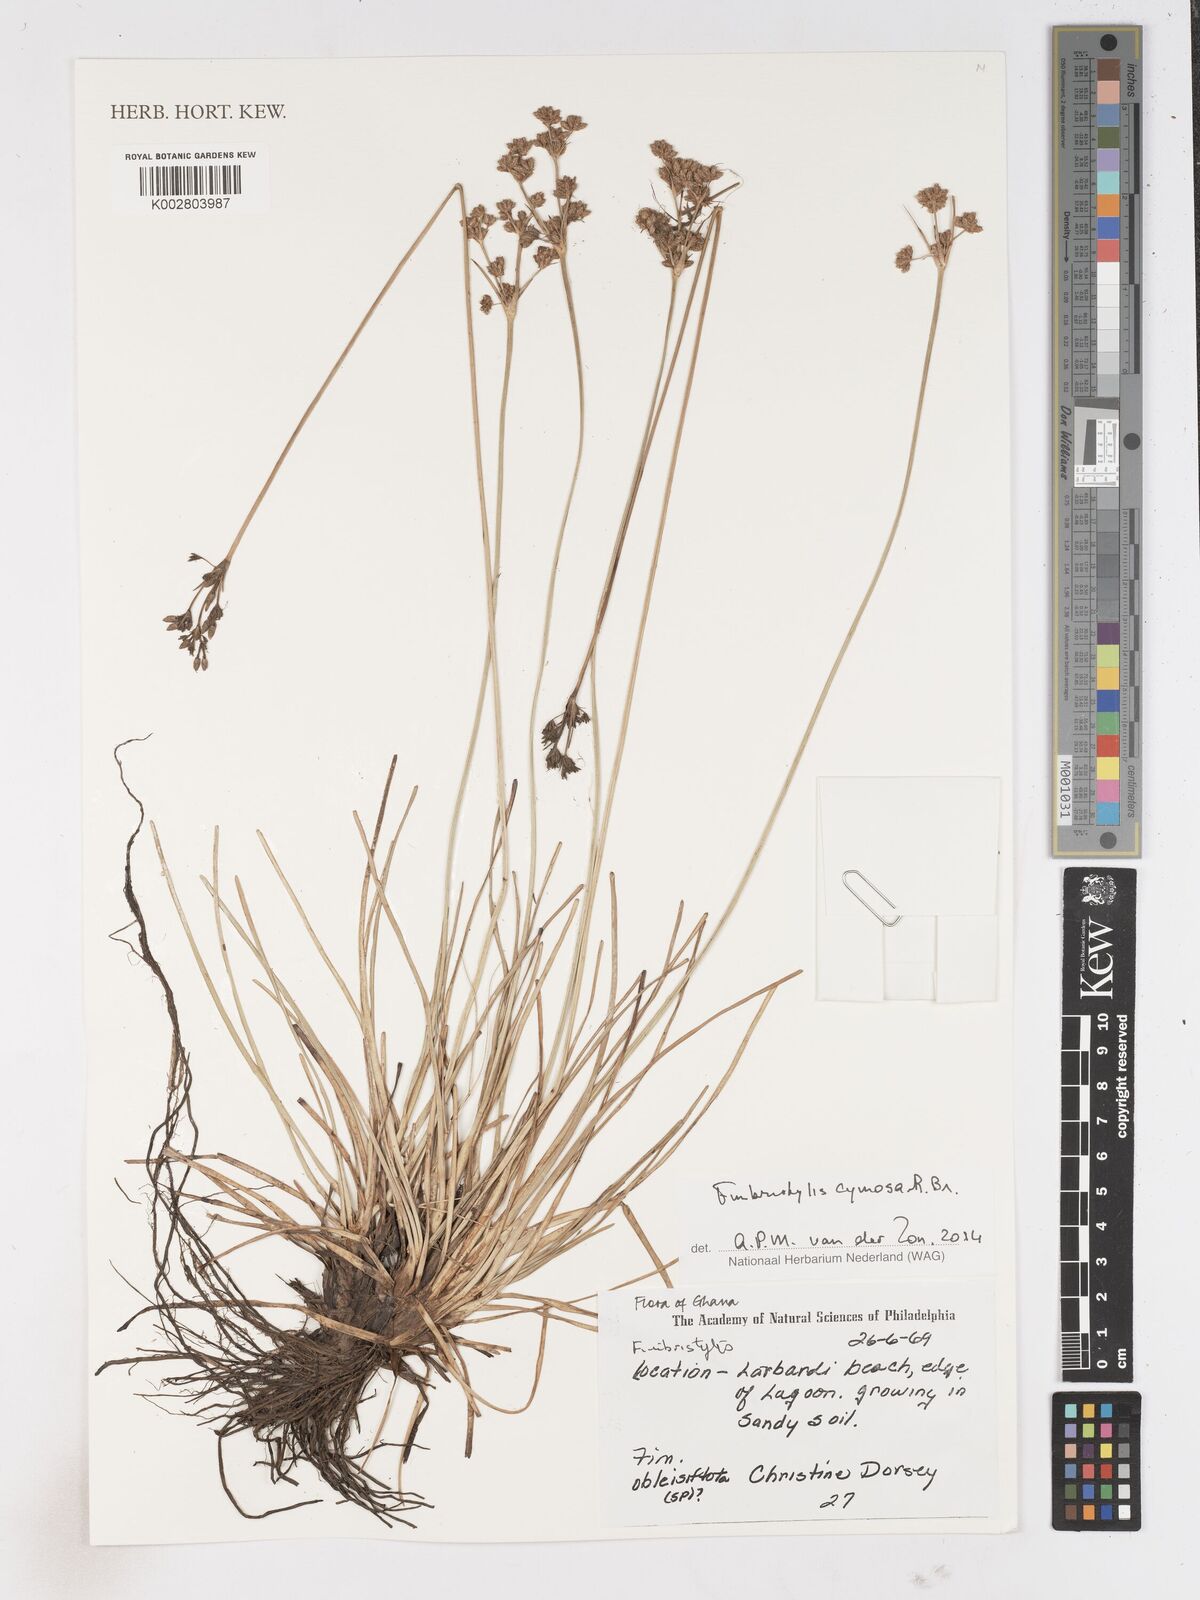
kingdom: Plantae
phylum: Tracheophyta
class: Liliopsida
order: Poales
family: Cyperaceae
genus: Fimbristylis
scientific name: Fimbristylis cymosa
